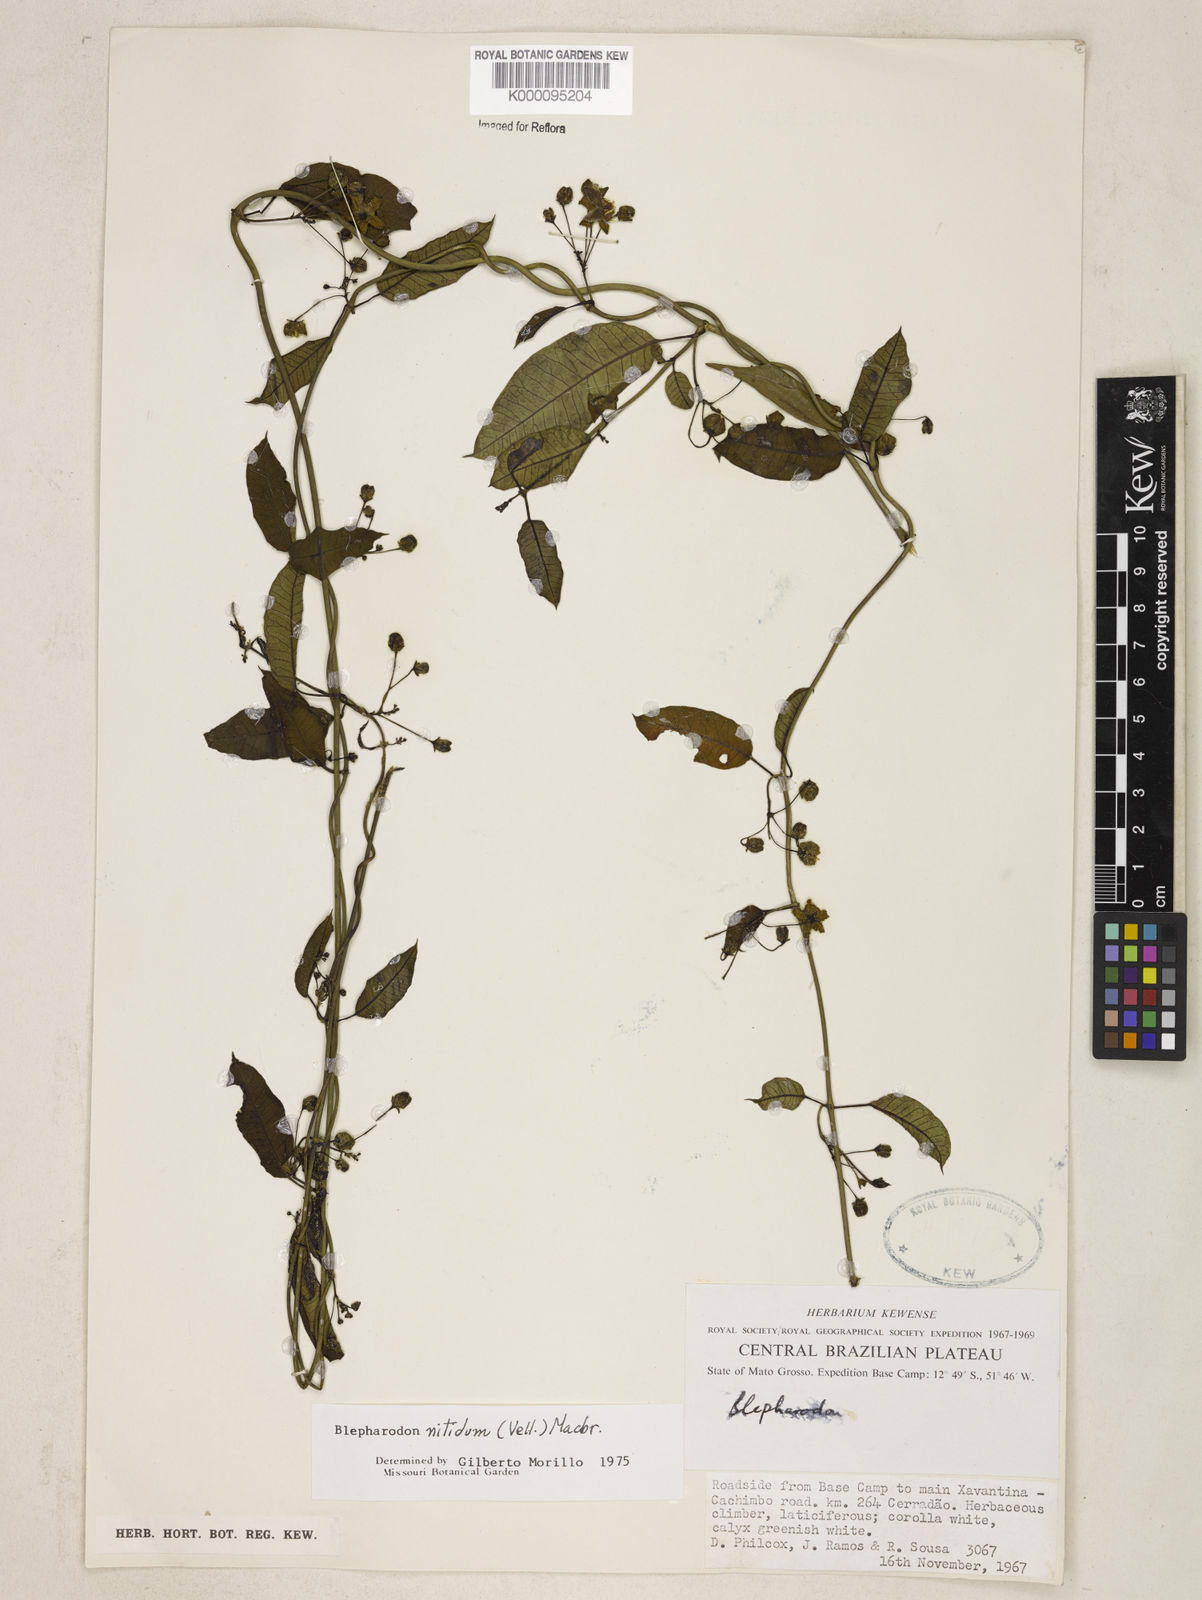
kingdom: Plantae
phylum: Tracheophyta
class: Magnoliopsida
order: Gentianales
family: Apocynaceae
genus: Blepharodon
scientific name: Blepharodon pictum
